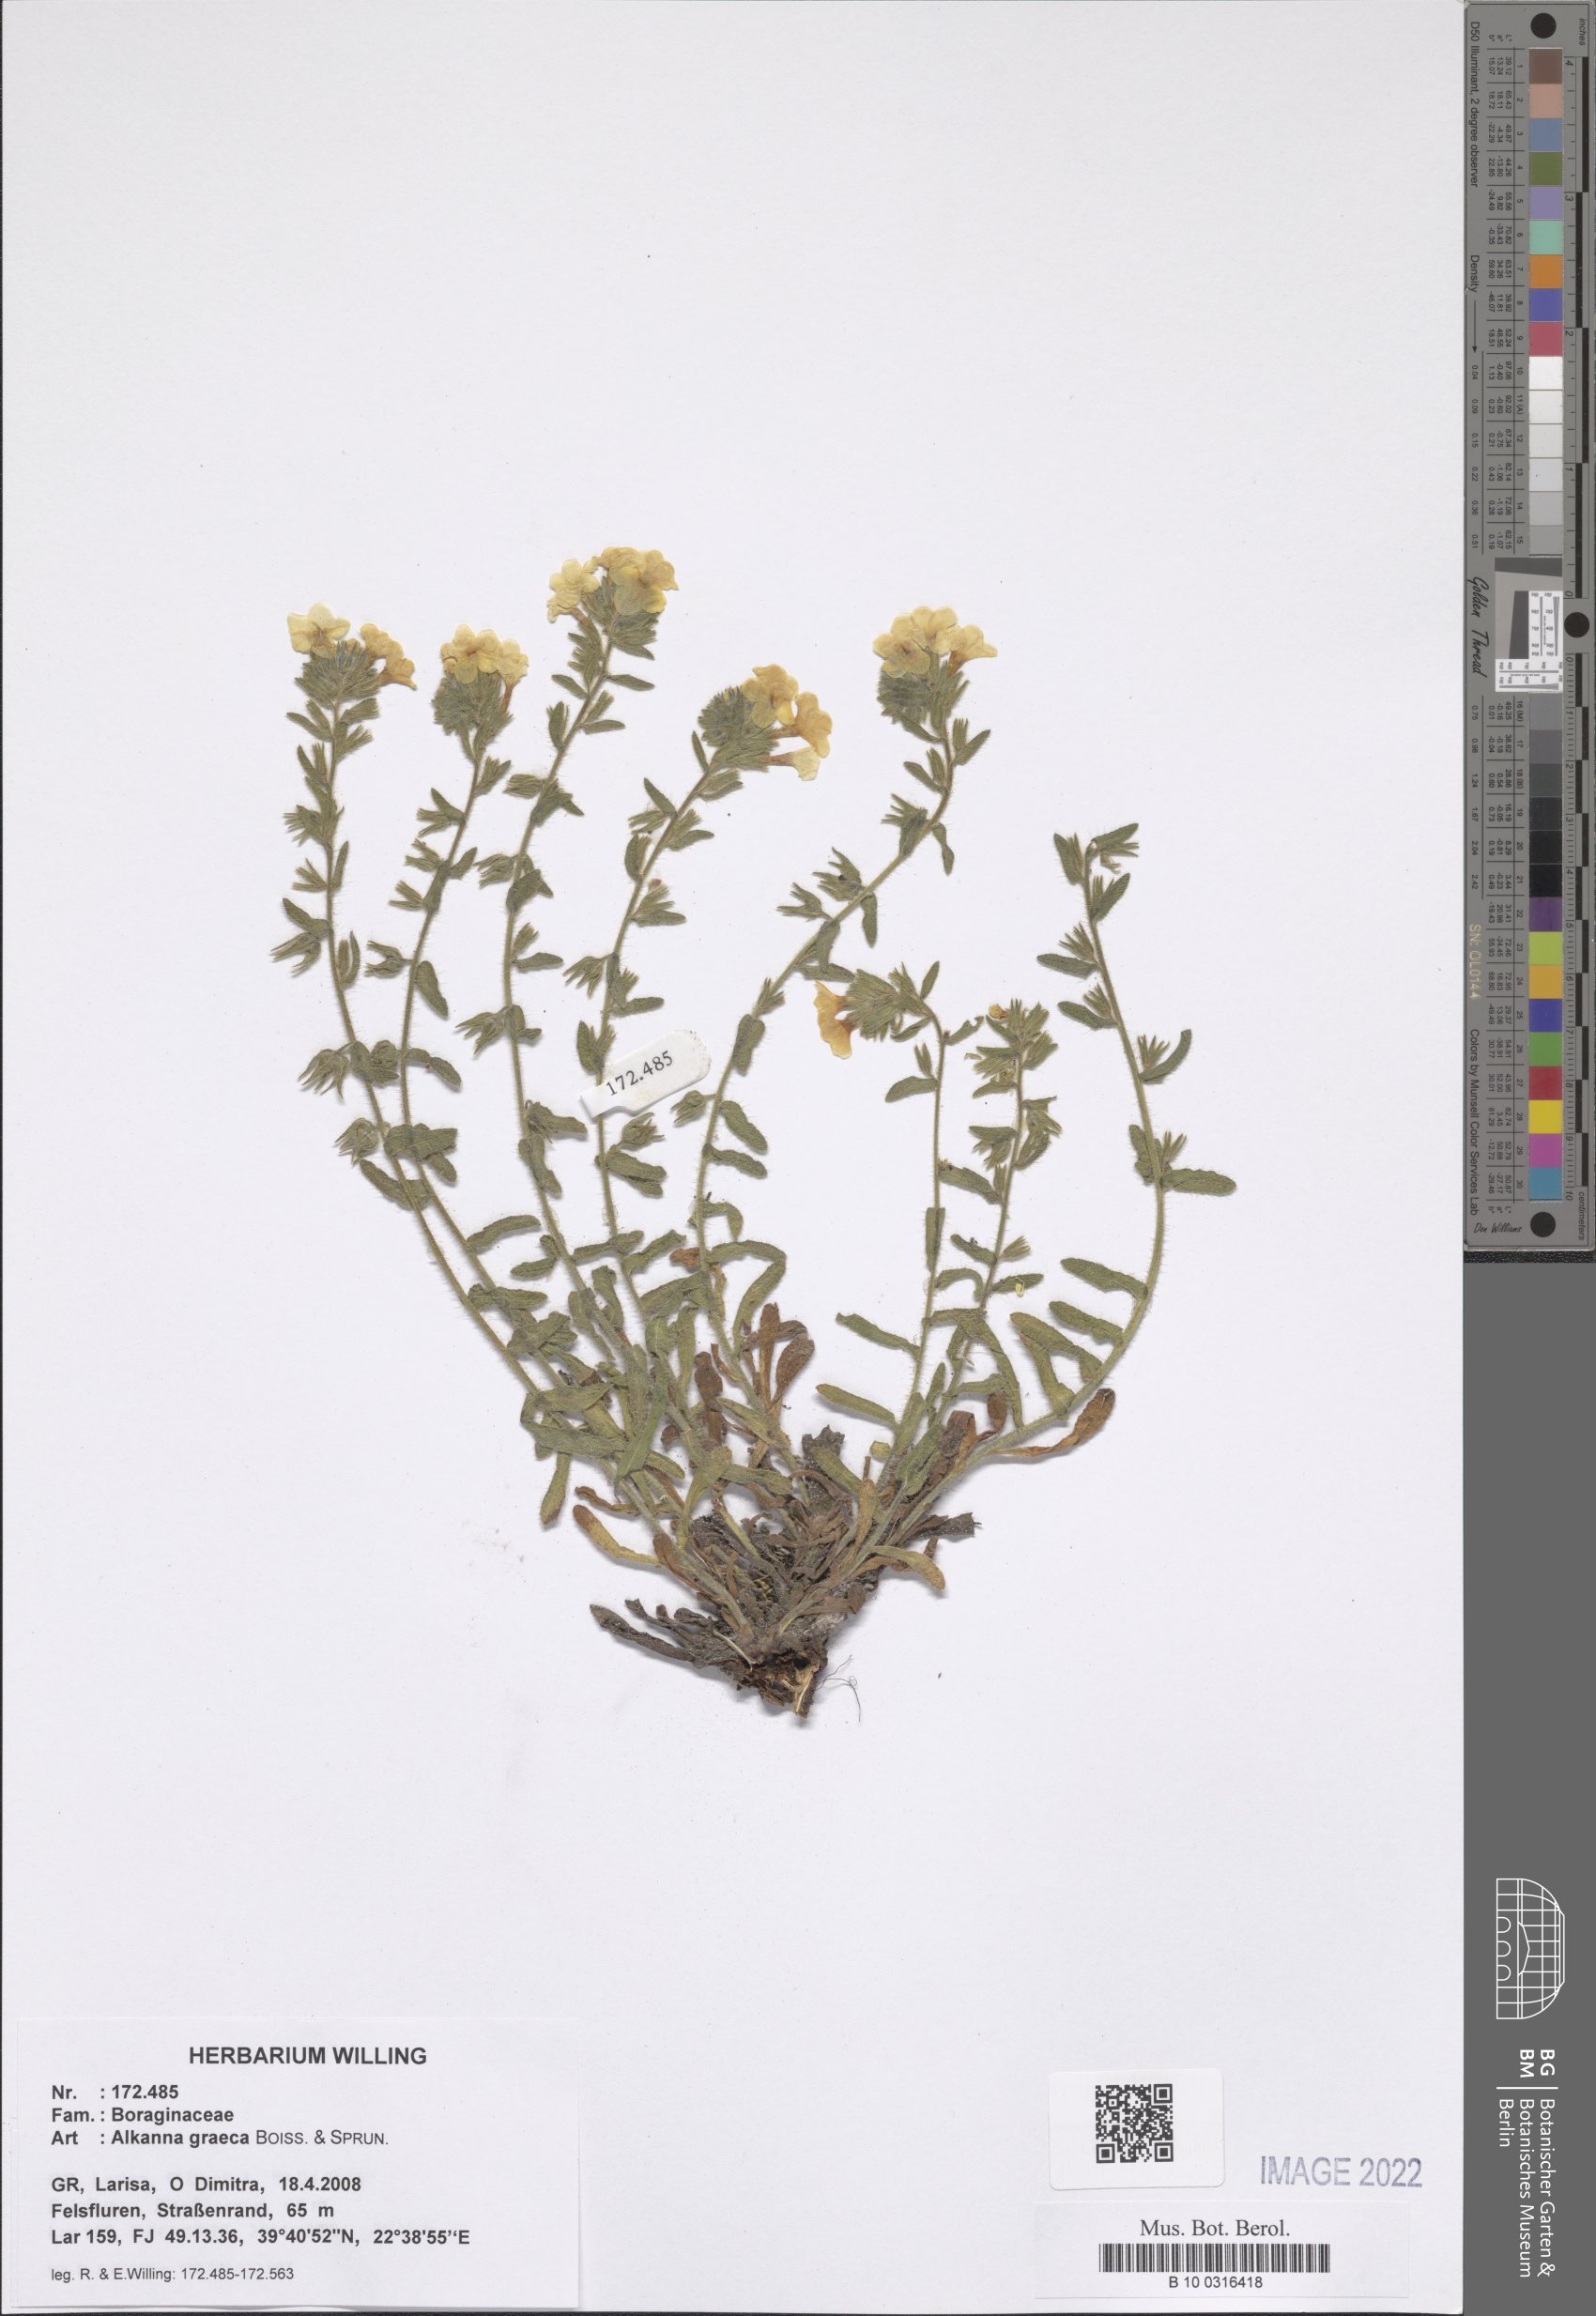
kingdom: Plantae
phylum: Tracheophyta
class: Magnoliopsida
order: Boraginales
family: Boraginaceae
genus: Alkanna
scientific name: Alkanna graeca
